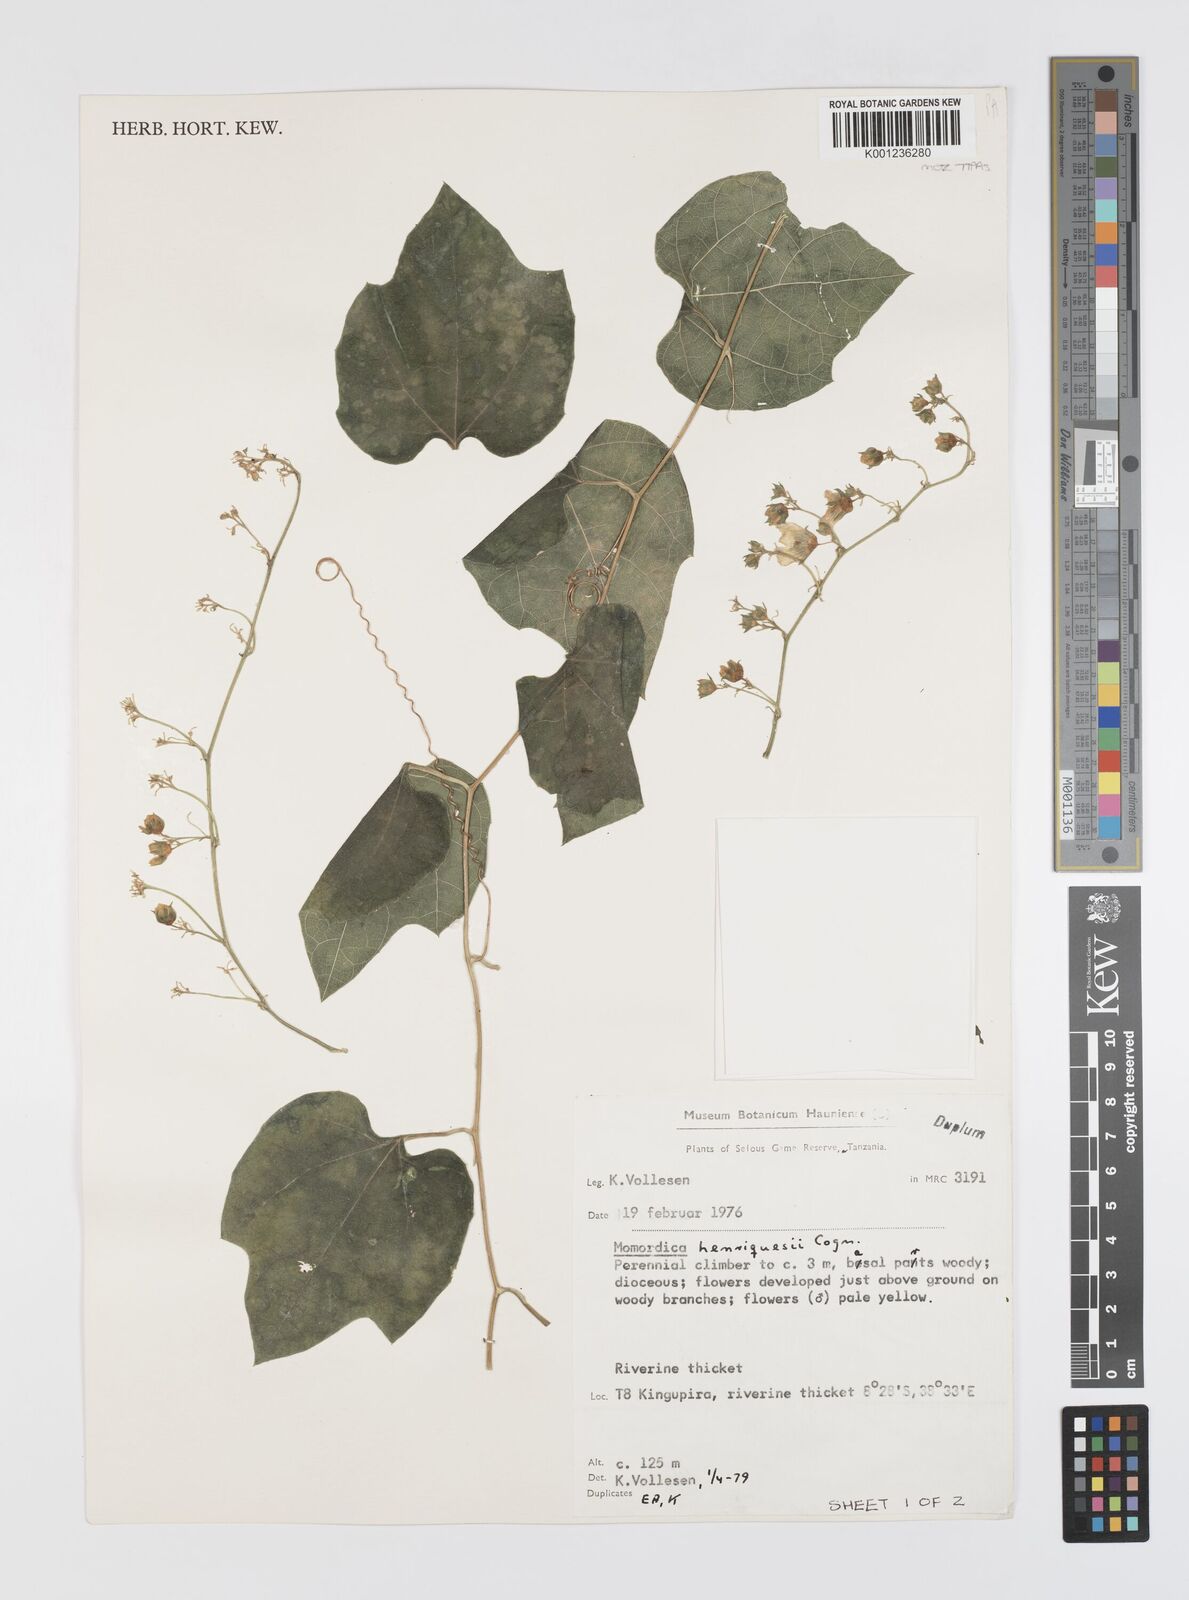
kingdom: Plantae
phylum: Tracheophyta
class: Magnoliopsida
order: Cucurbitales
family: Cucurbitaceae
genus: Momordica
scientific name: Momordica henriquesii
